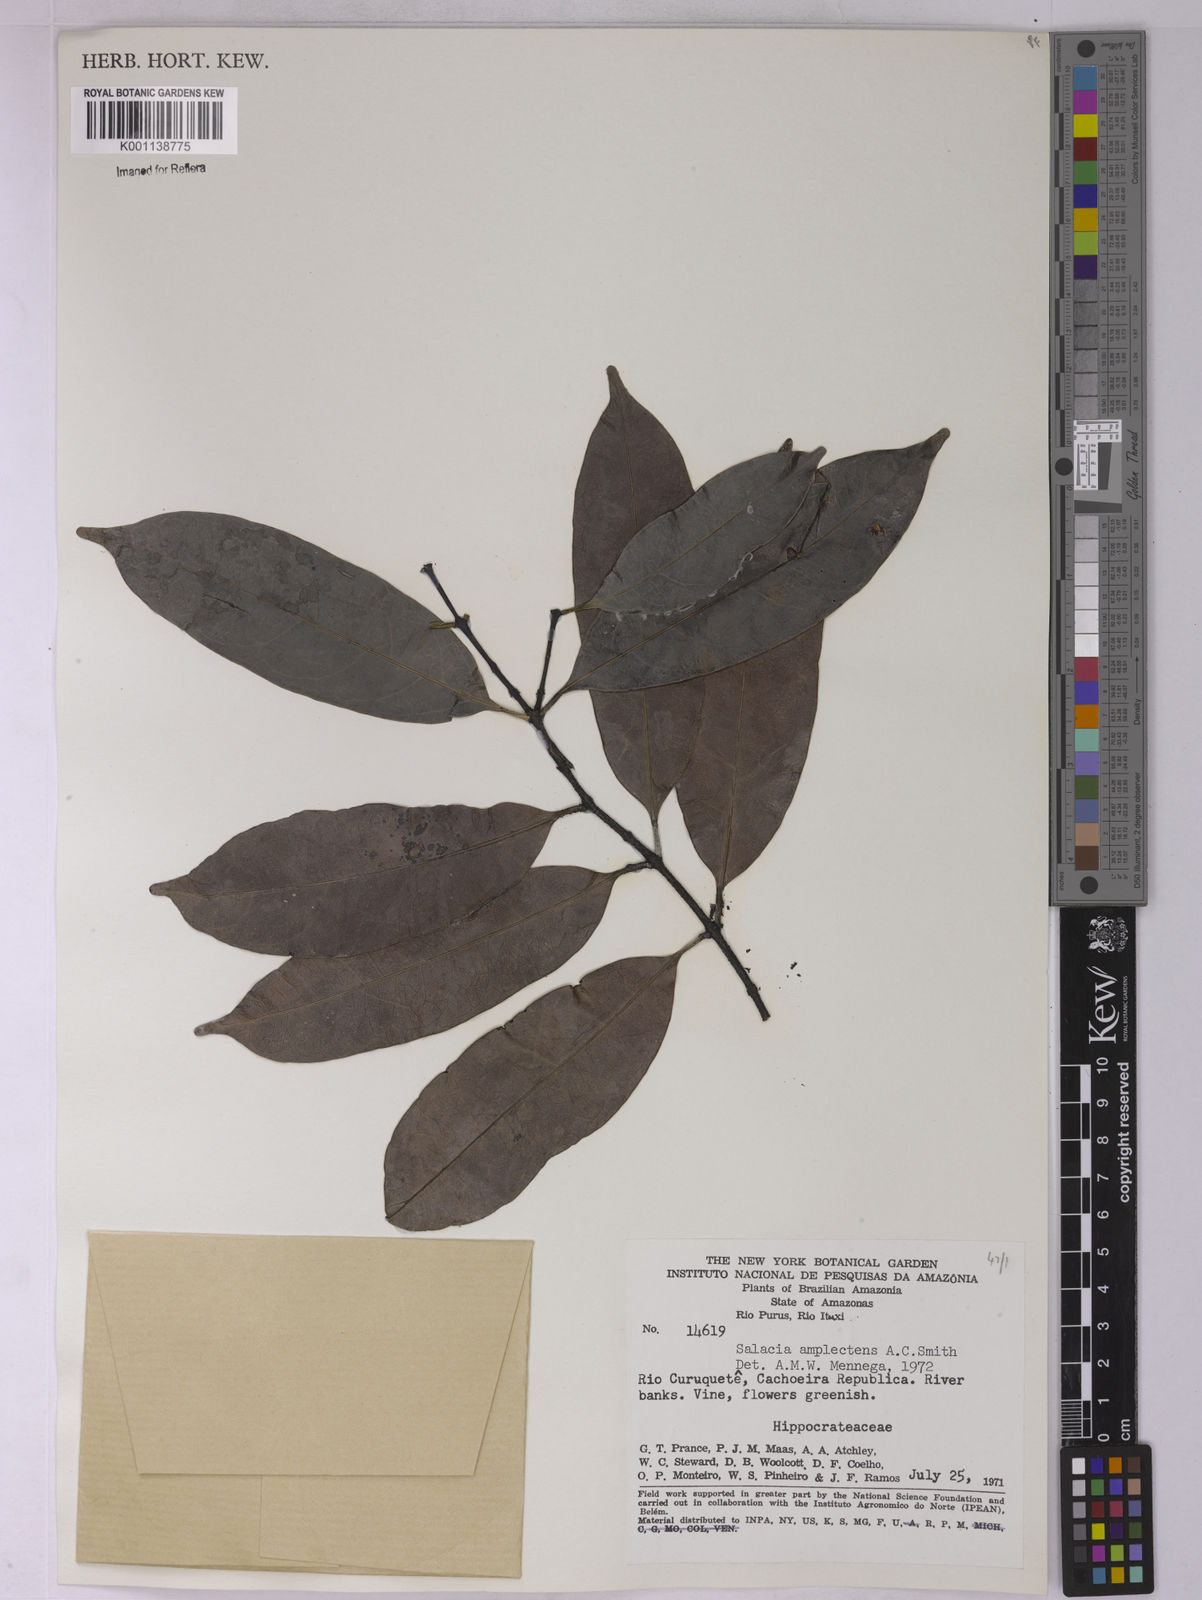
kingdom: Plantae
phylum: Tracheophyta
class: Magnoliopsida
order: Celastrales
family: Celastraceae
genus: Salacia
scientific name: Salacia amplectens
